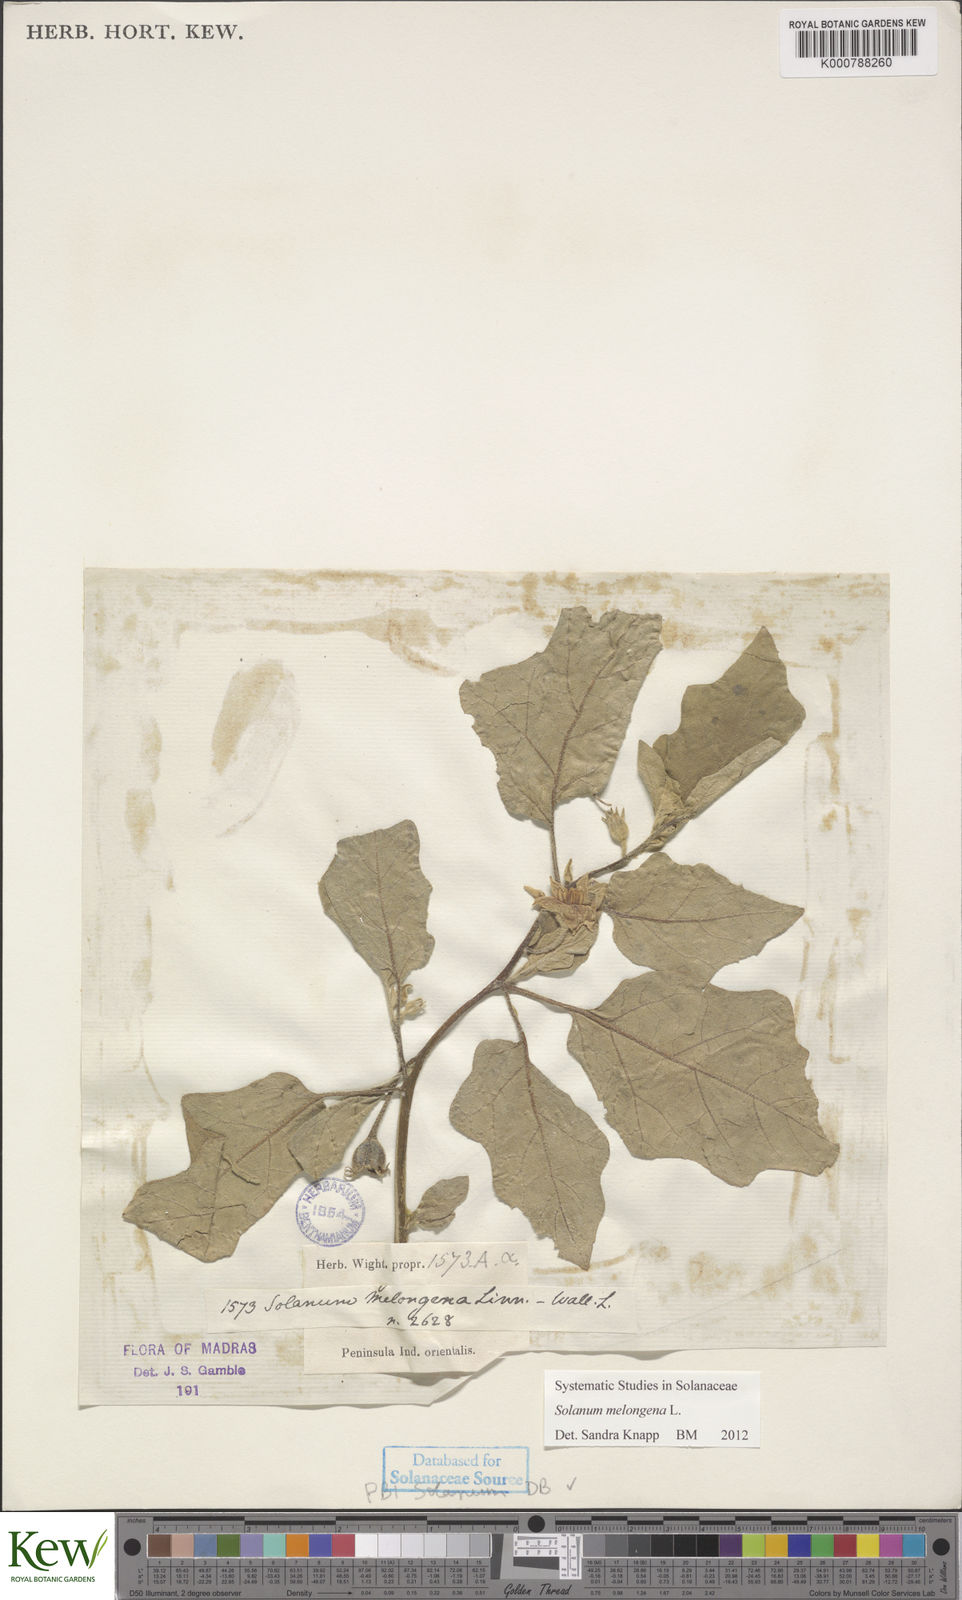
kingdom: Plantae
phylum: Tracheophyta
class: Magnoliopsida
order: Solanales
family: Solanaceae
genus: Solanum
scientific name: Solanum melongena
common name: Eggplant
